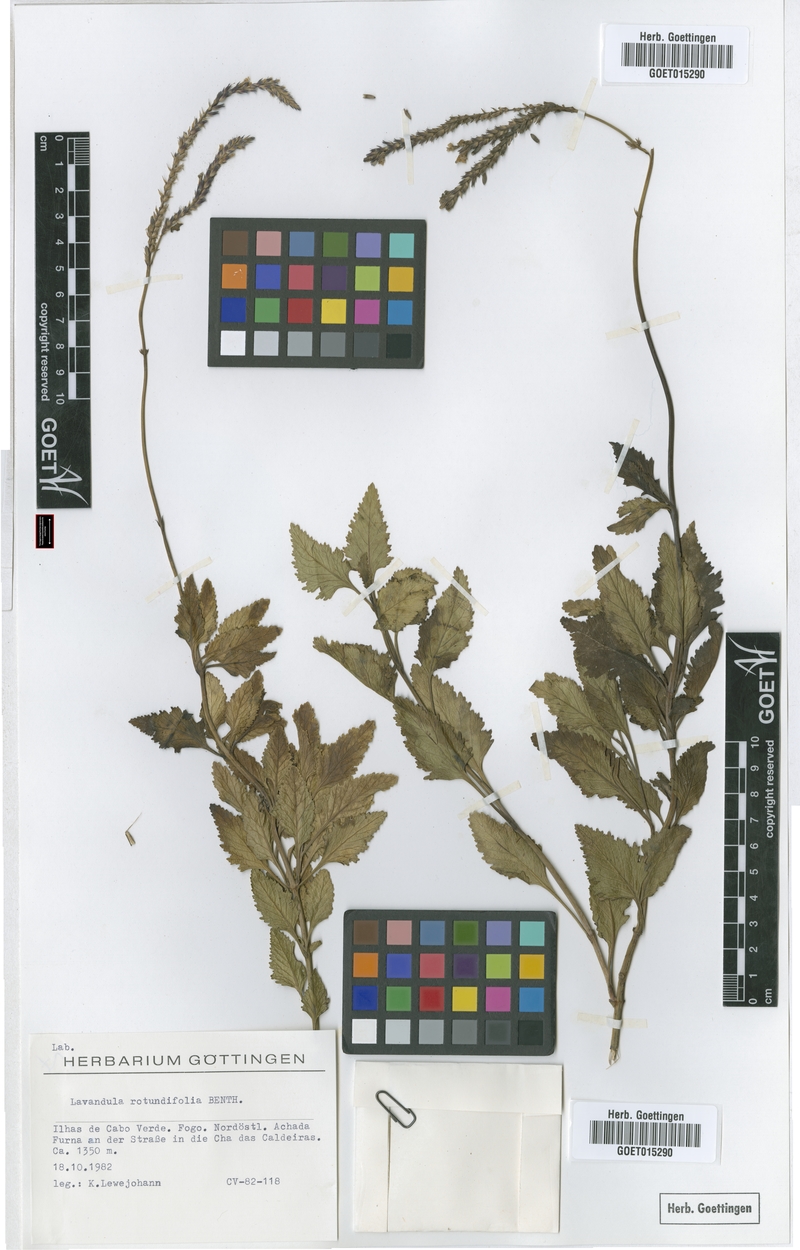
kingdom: Plantae
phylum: Tracheophyta
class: Magnoliopsida
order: Lamiales
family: Lamiaceae
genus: Lavandula
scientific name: Lavandula rotundifolia
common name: Round-leaf lavender
